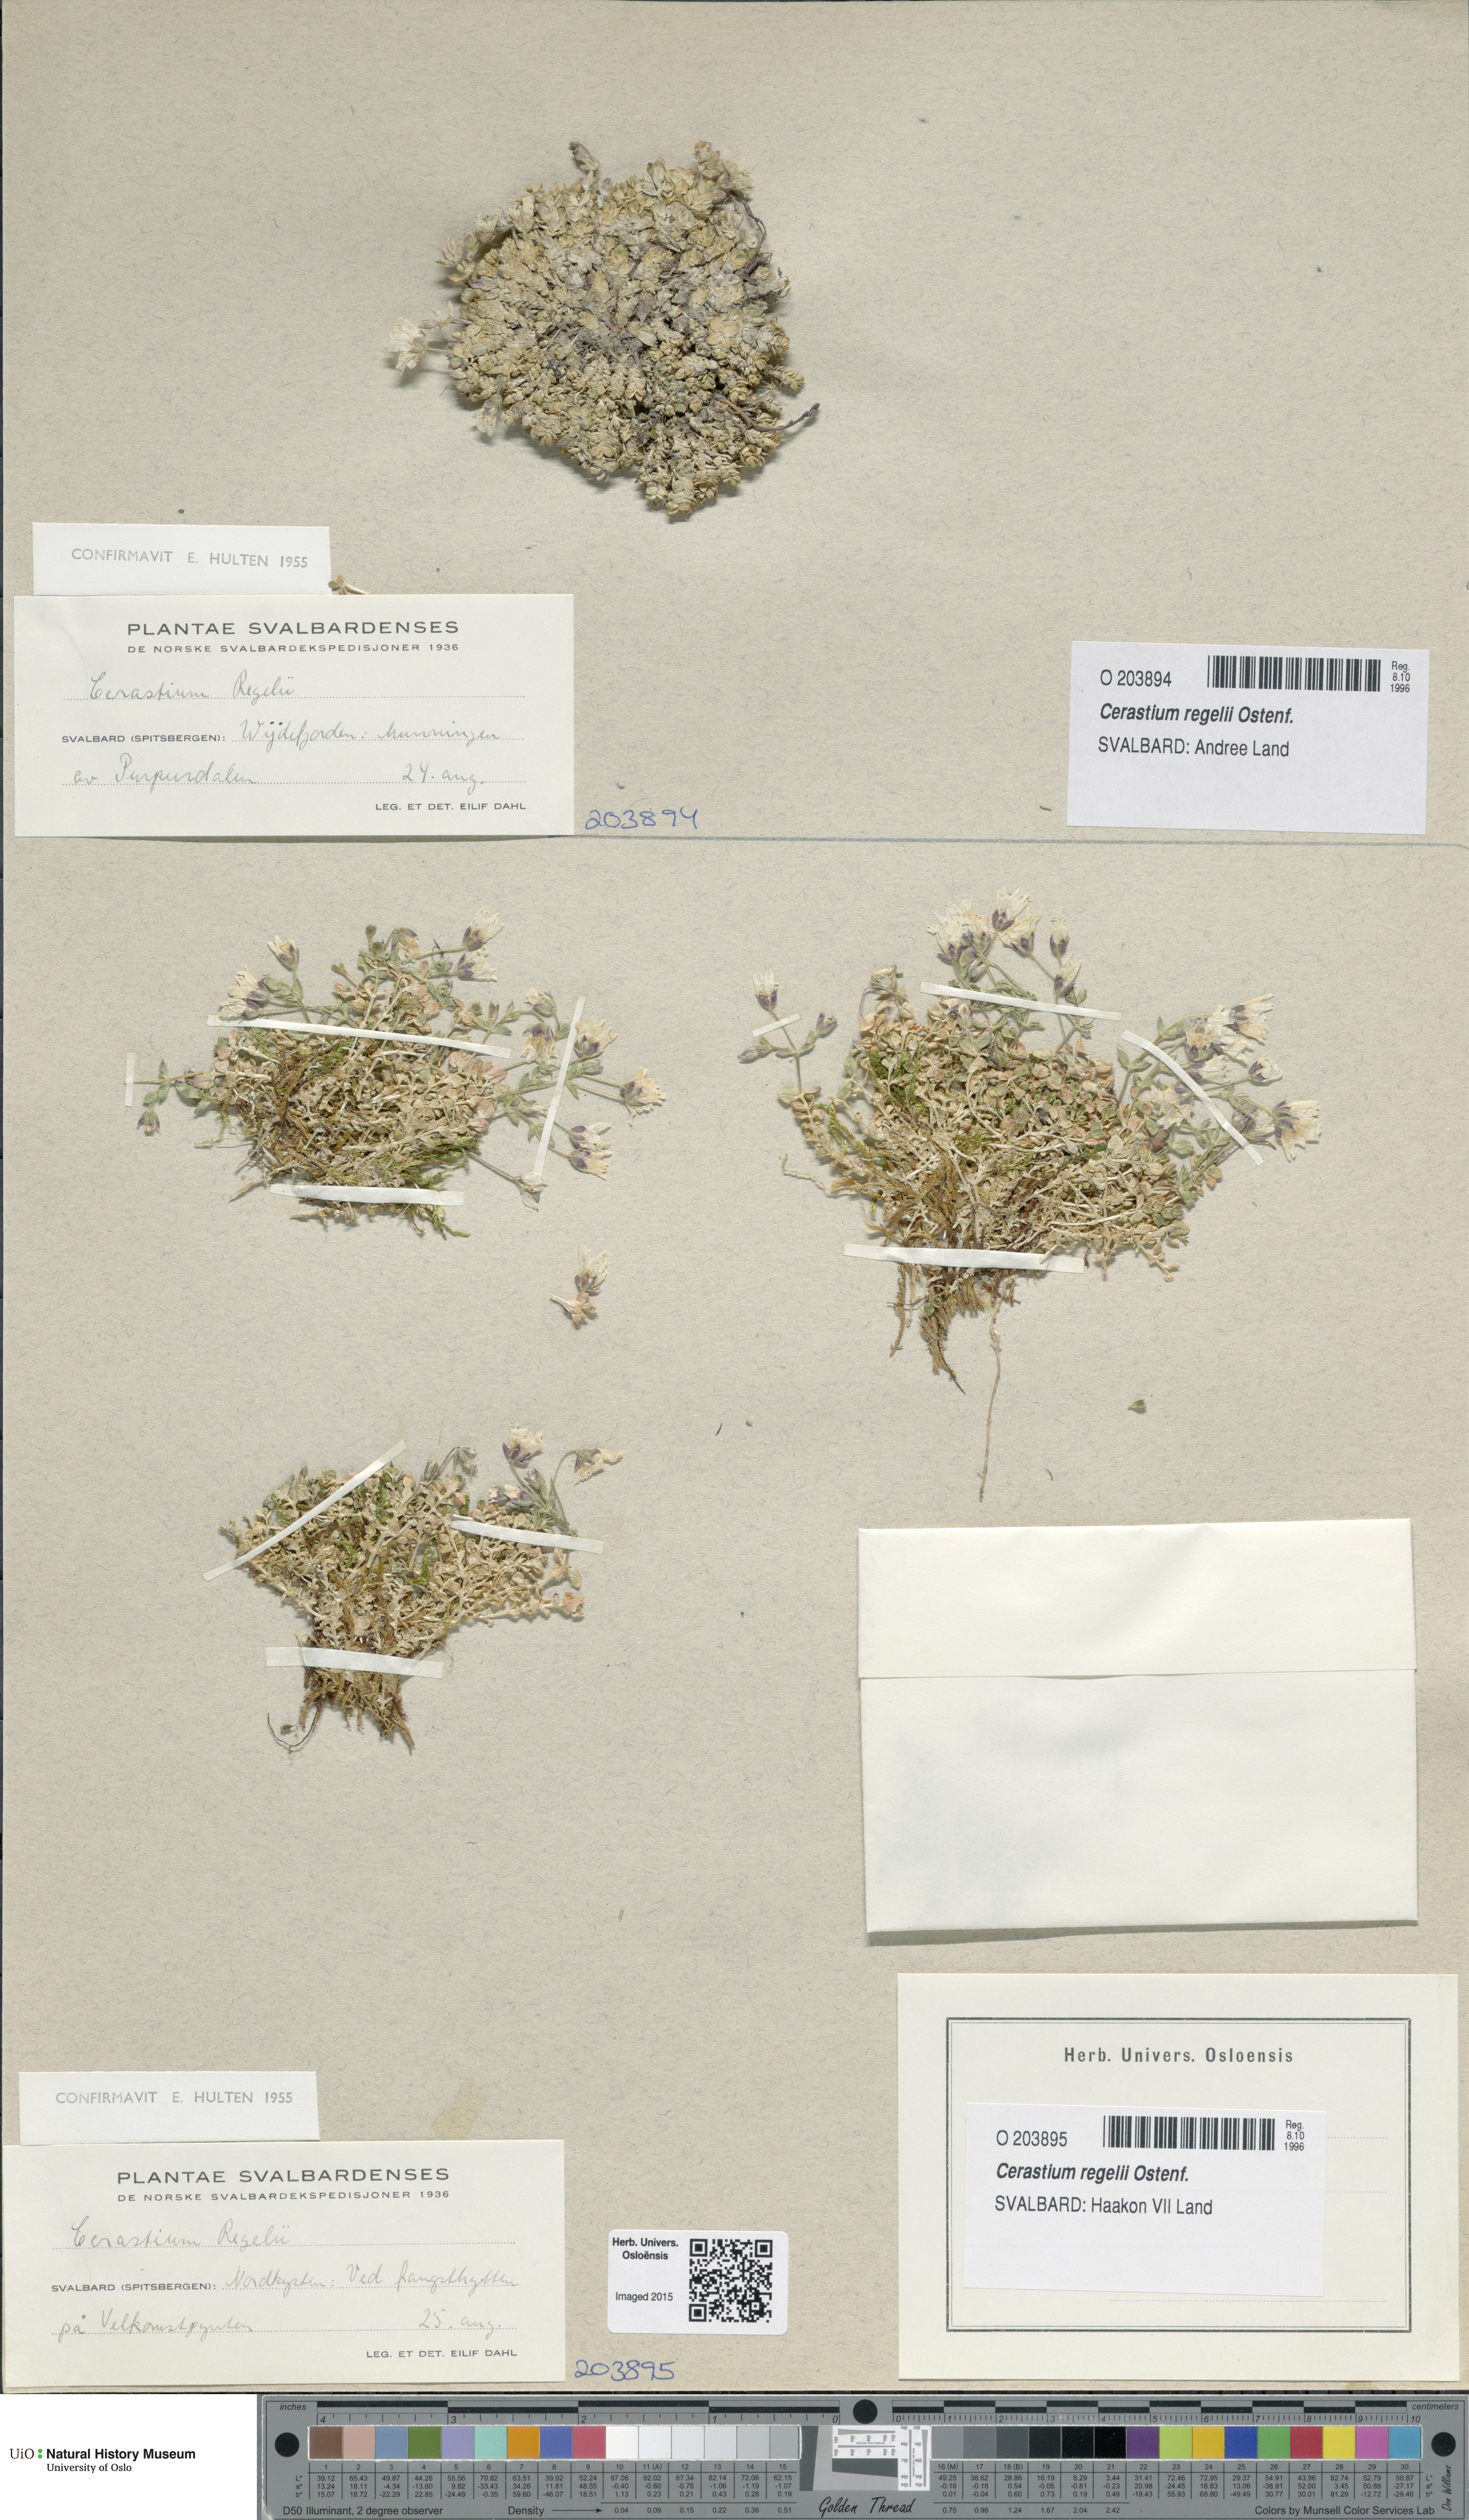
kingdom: Plantae
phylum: Tracheophyta
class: Magnoliopsida
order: Caryophyllales
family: Caryophyllaceae
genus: Cerastium
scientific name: Cerastium regelii
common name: Regel's chickweed
